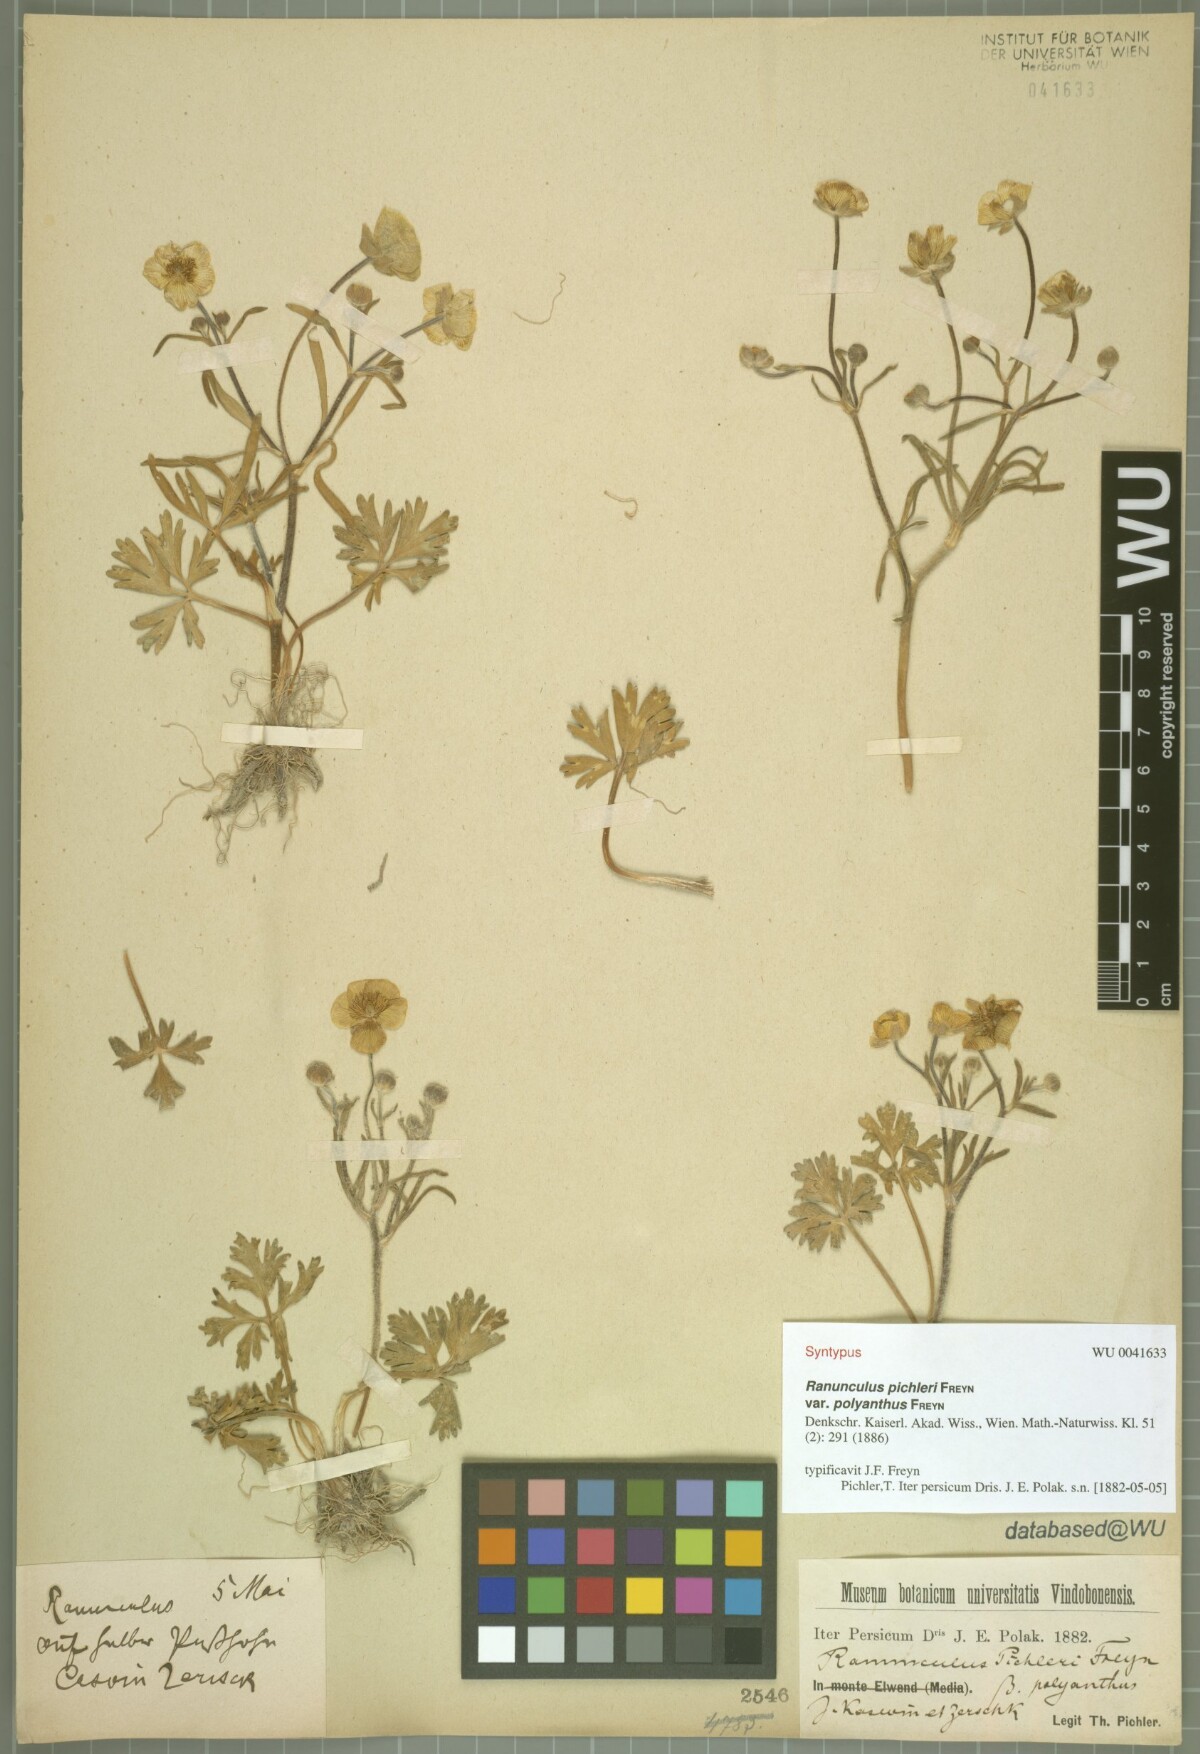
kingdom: Plantae
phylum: Tracheophyta
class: Magnoliopsida
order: Ranunculales
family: Ranunculaceae
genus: Ranunculus
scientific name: Ranunculus pichleri
